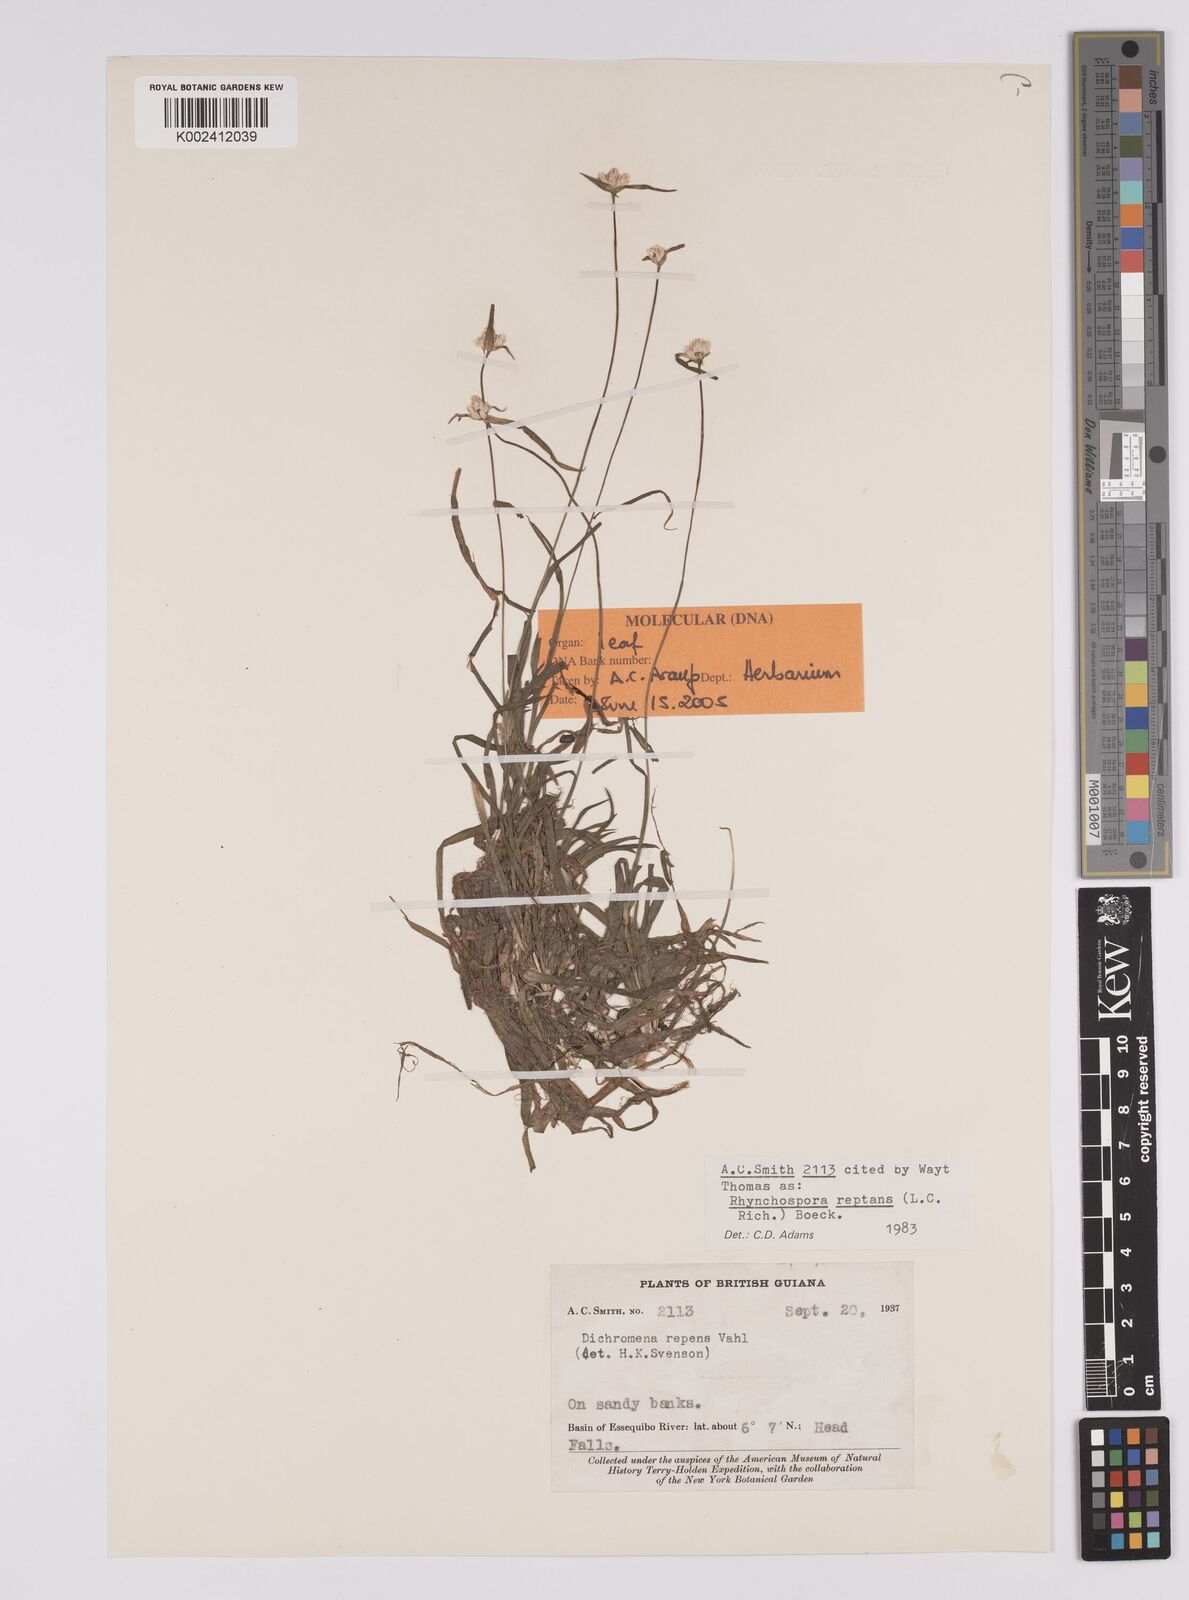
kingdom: Plantae
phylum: Tracheophyta
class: Liliopsida
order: Poales
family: Cyperaceae
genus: Rhynchospora
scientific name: Rhynchospora reptans
